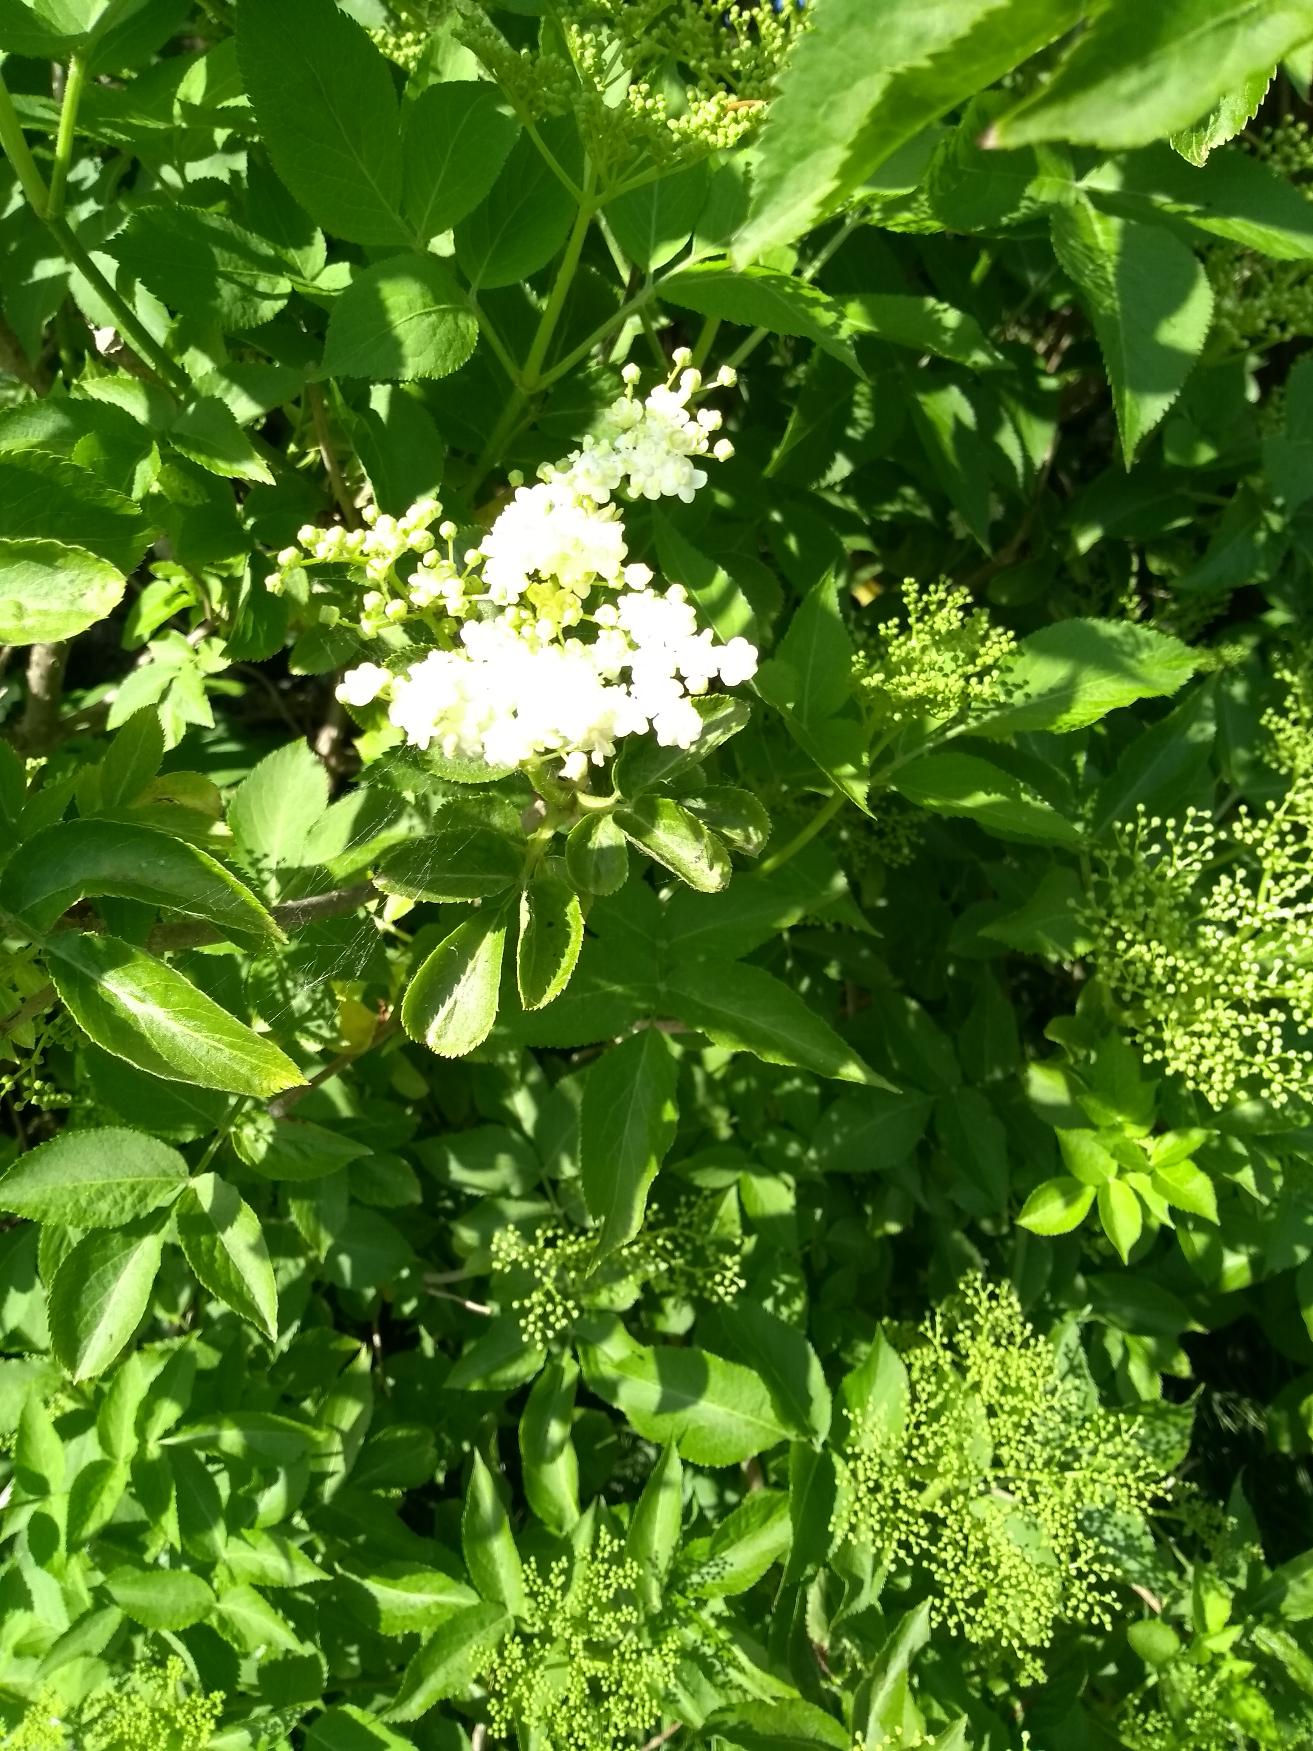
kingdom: Plantae
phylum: Tracheophyta
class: Magnoliopsida
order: Dipsacales
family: Viburnaceae
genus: Sambucus
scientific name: Sambucus nigra
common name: Almindelig hyld
